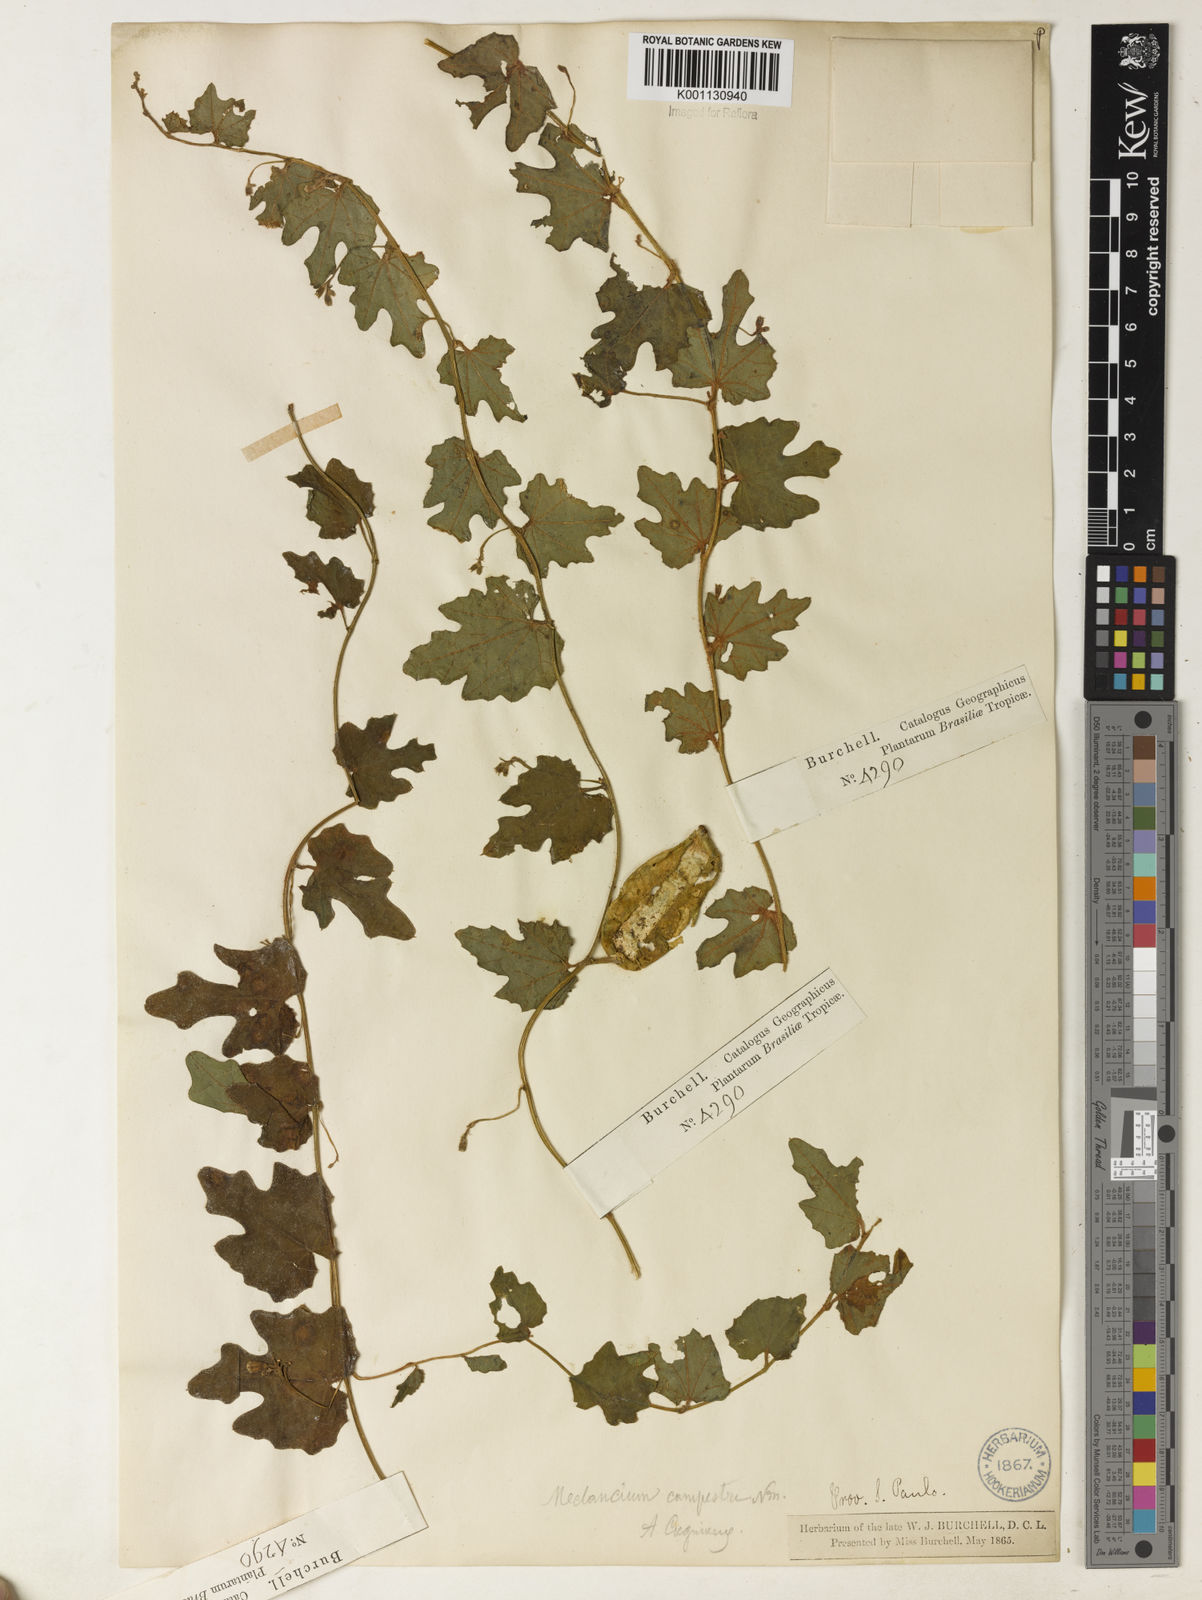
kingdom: Plantae
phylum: Tracheophyta
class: Magnoliopsida
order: Cucurbitales
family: Cucurbitaceae
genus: Melothria
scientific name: Melothria campestris
